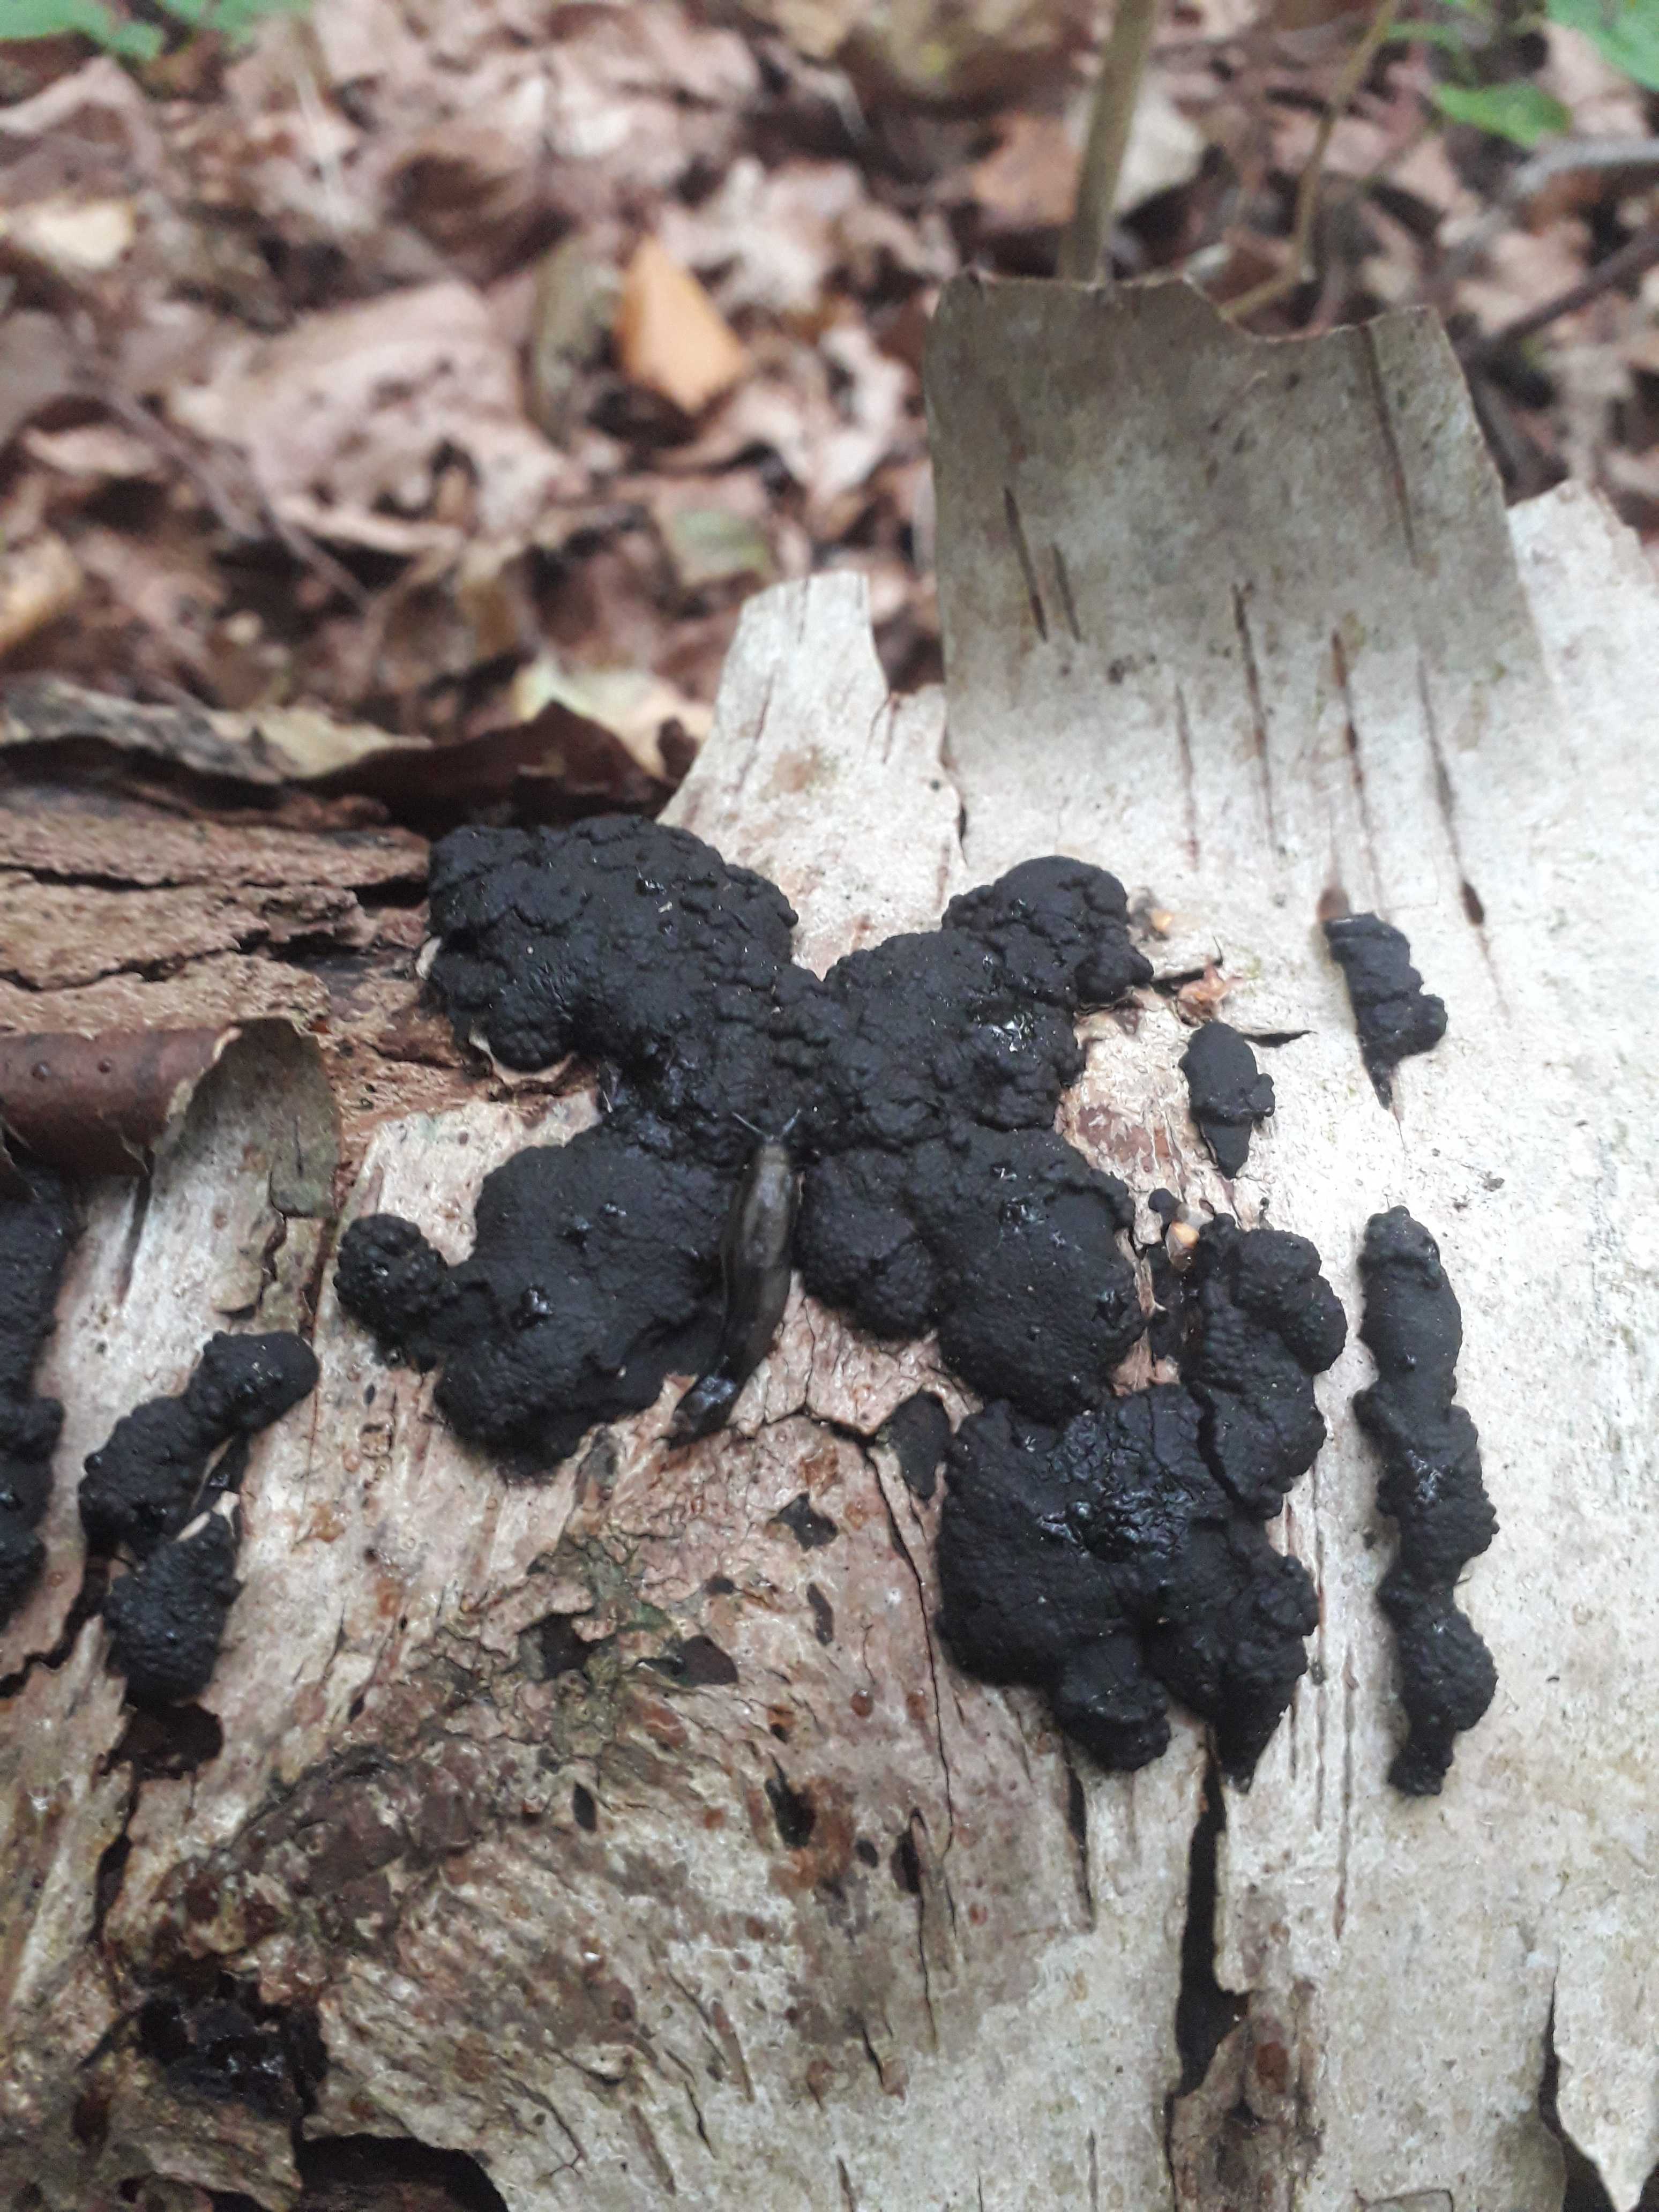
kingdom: Fungi
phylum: Ascomycota
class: Sordariomycetes
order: Xylariales
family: Hypoxylaceae
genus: Jackrogersella
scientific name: Jackrogersella multiformis
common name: foranderlig kulbær
